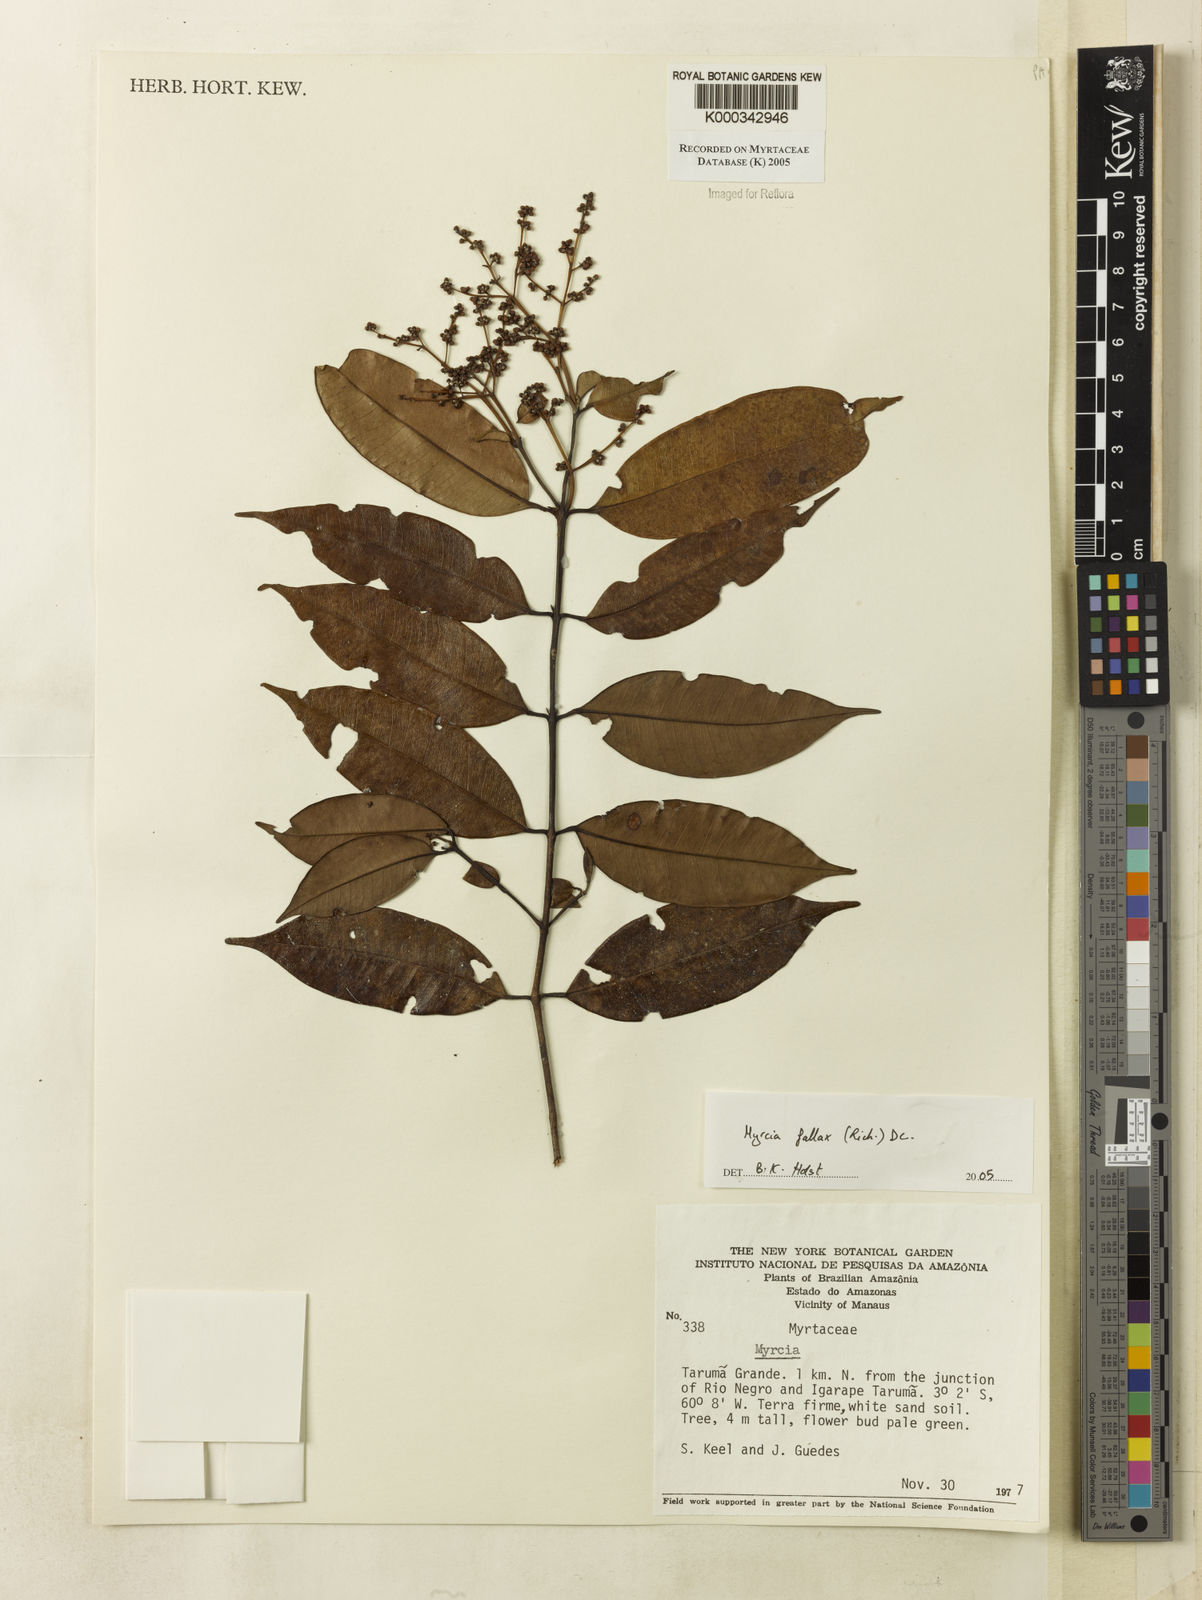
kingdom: Plantae
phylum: Tracheophyta
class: Magnoliopsida
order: Myrtales
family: Myrtaceae
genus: Myrcia
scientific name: Myrcia splendens
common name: Surinam cherry
